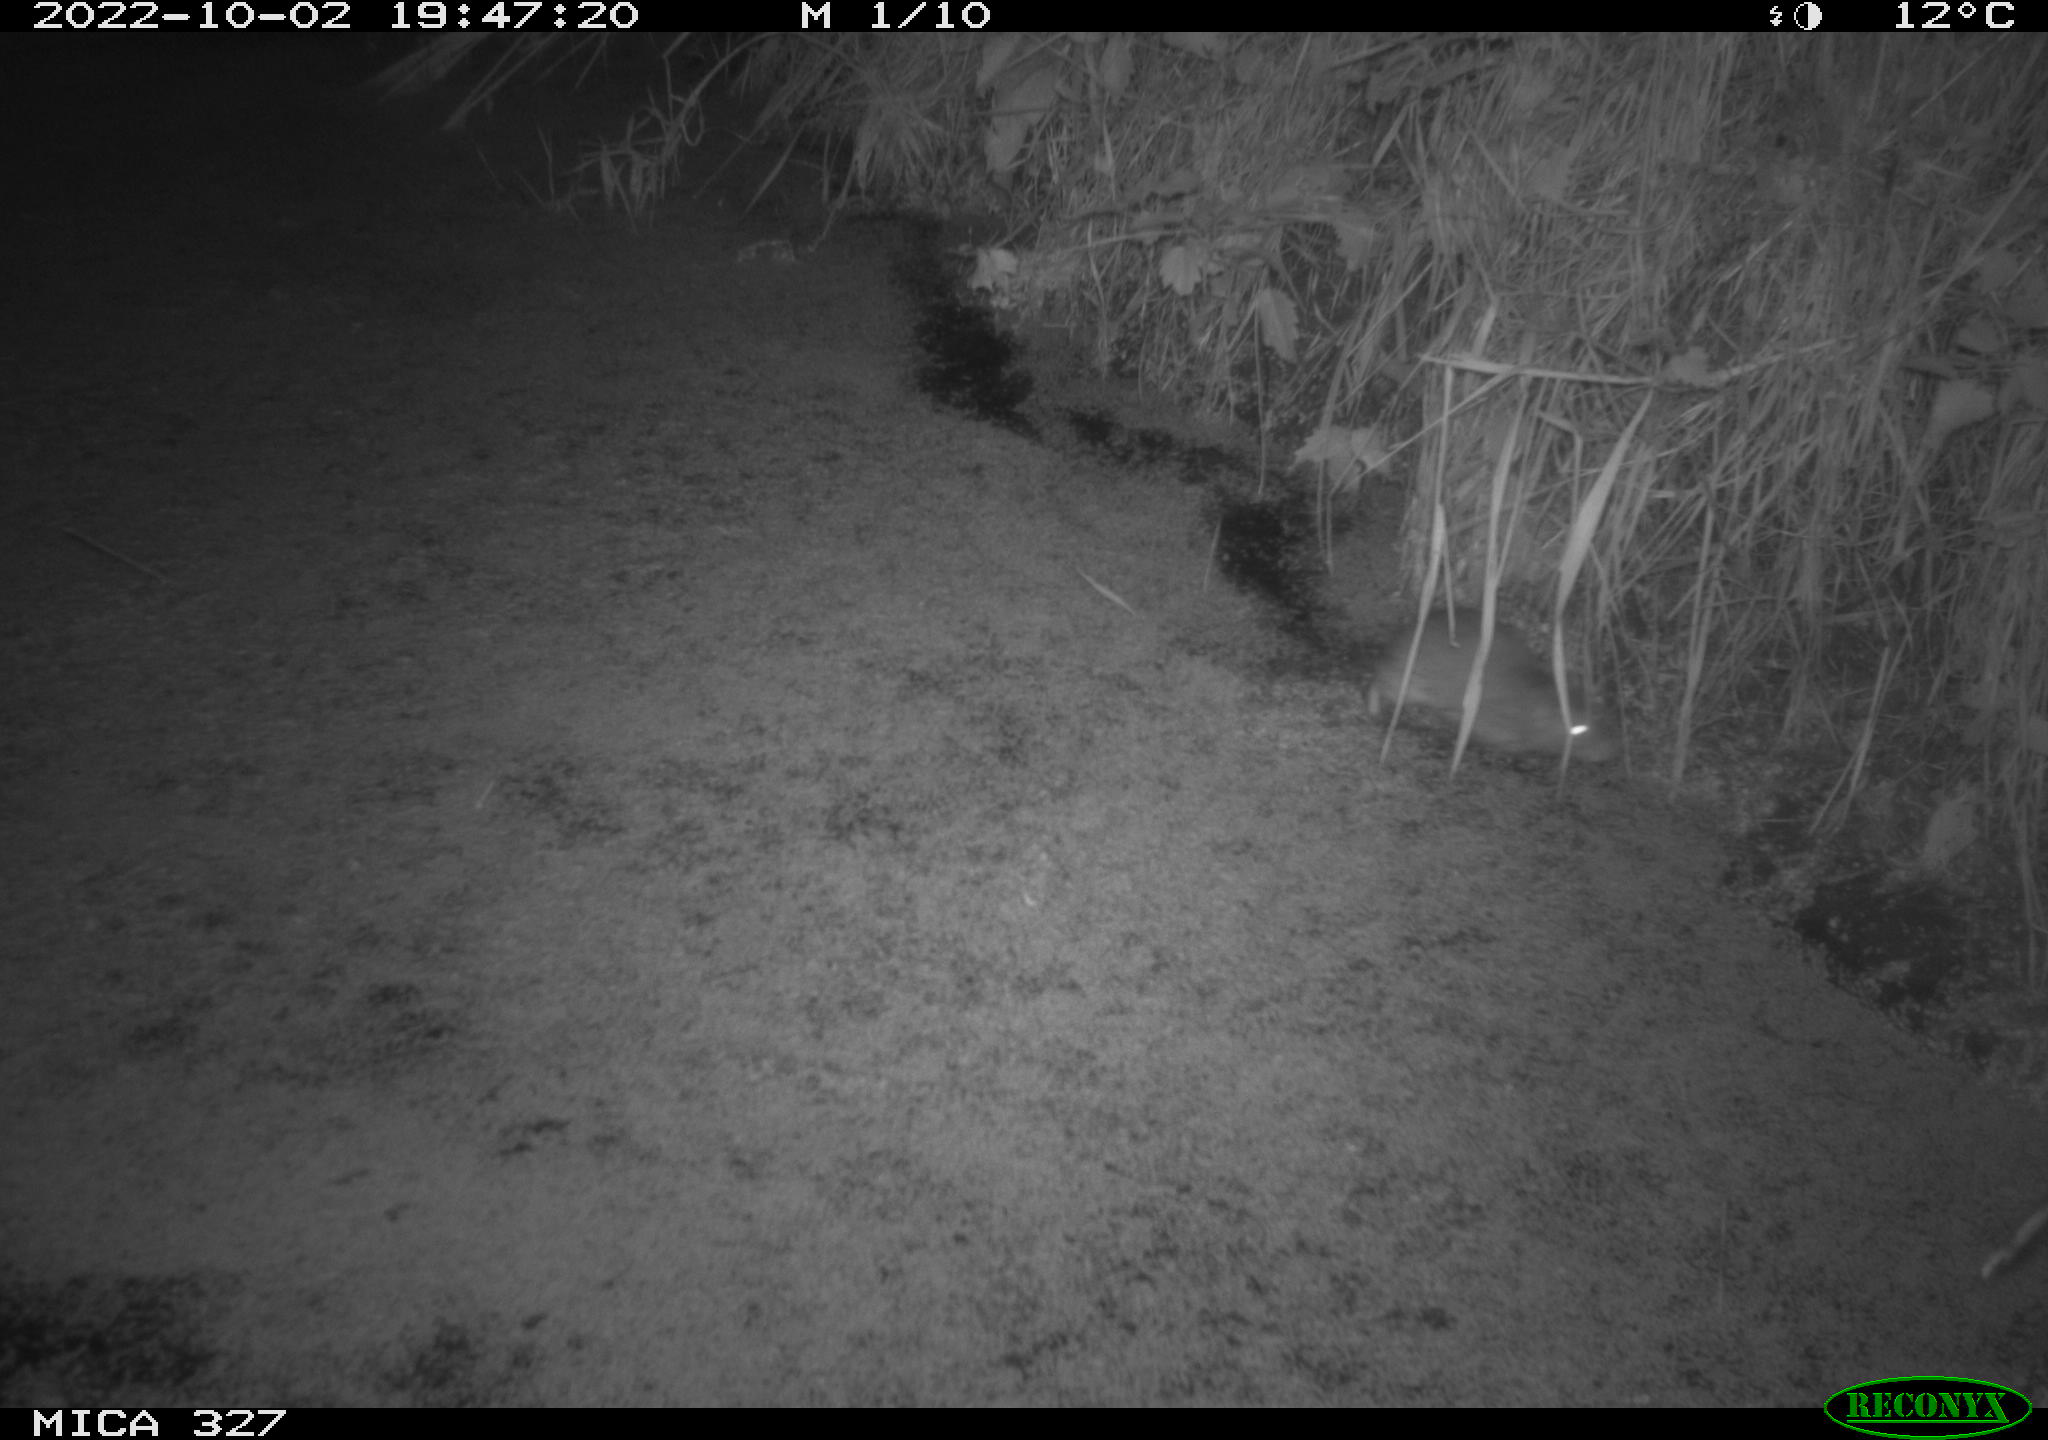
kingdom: Animalia
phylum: Chordata
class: Mammalia
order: Rodentia
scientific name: Rodentia
